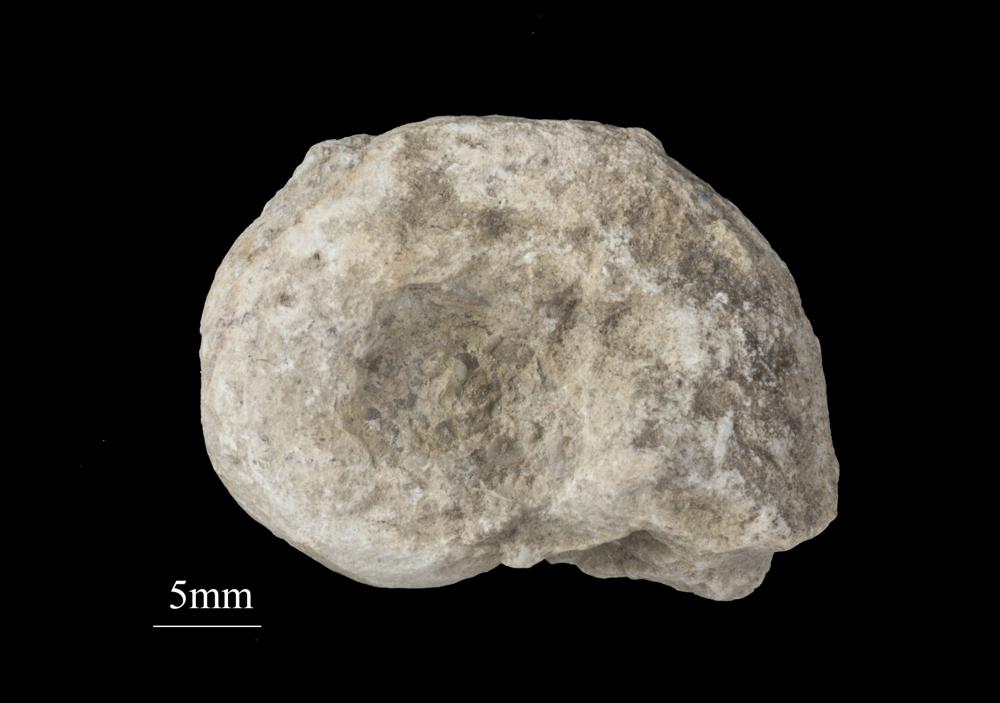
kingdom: Animalia
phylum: Mollusca
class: Gastropoda
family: Bellerophontidae
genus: Bellerophon
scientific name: Bellerophon
